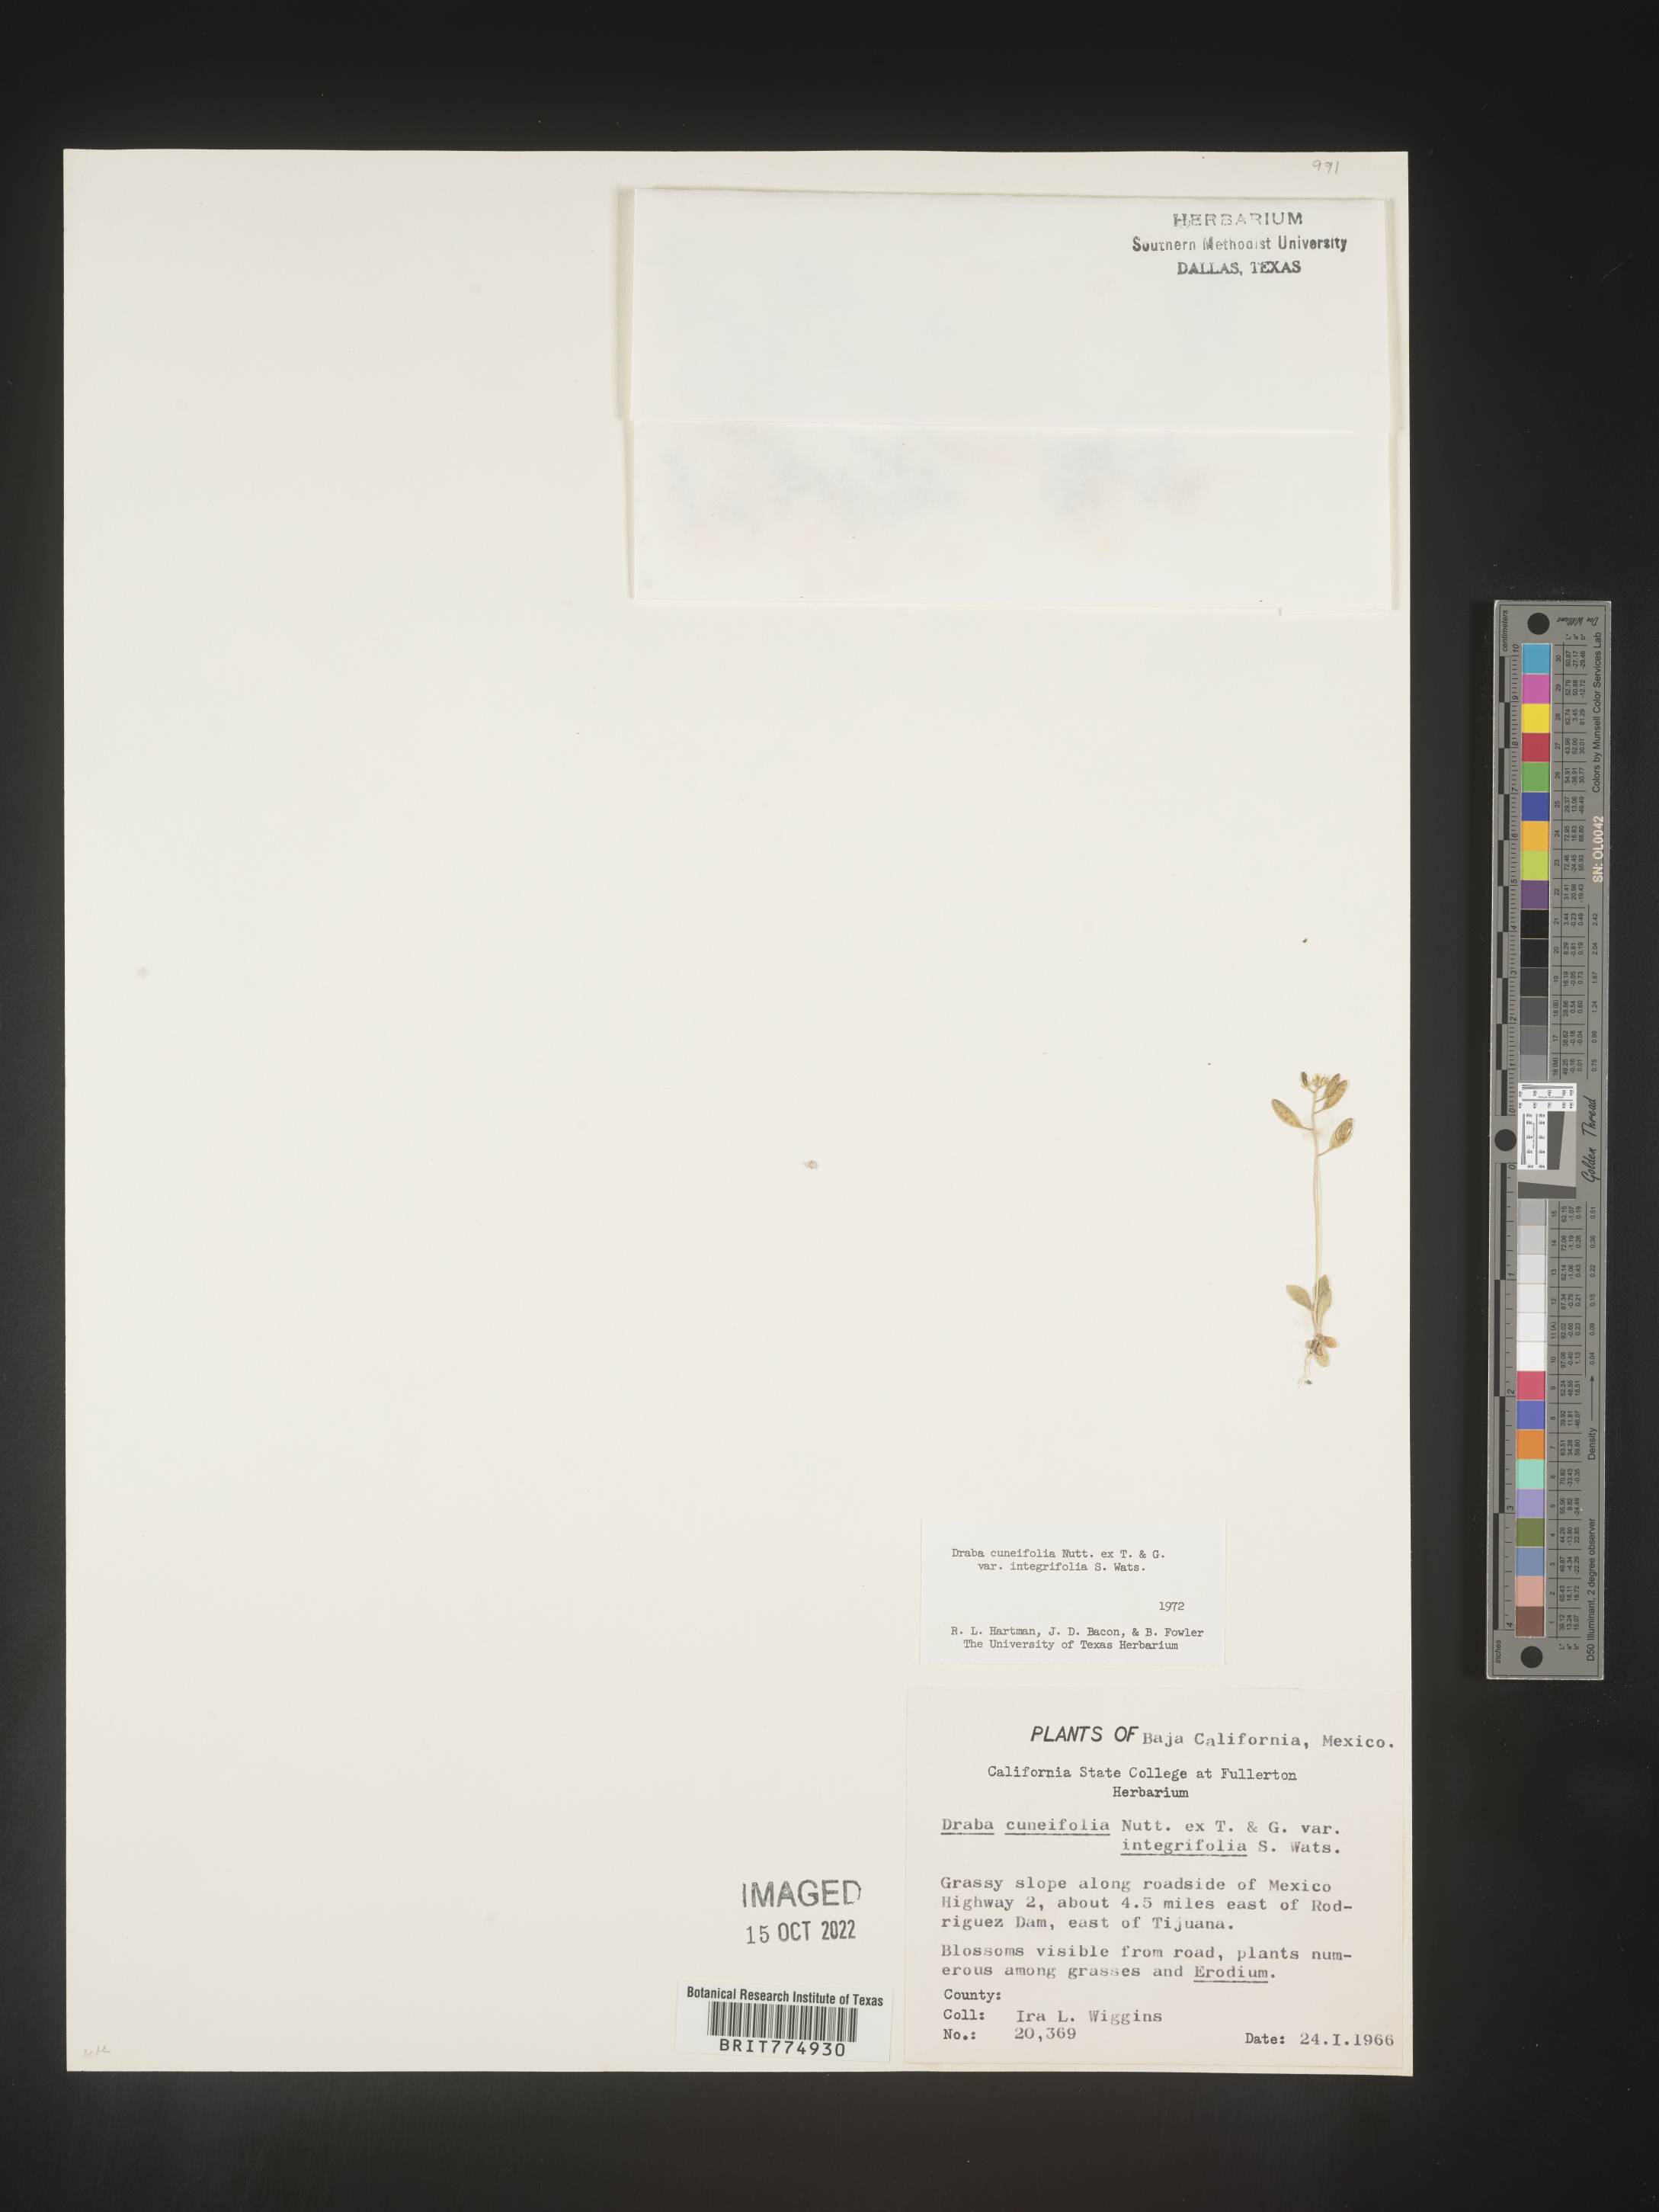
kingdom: Plantae
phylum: Tracheophyta
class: Magnoliopsida
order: Brassicales
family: Brassicaceae
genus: Draba
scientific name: Draba
